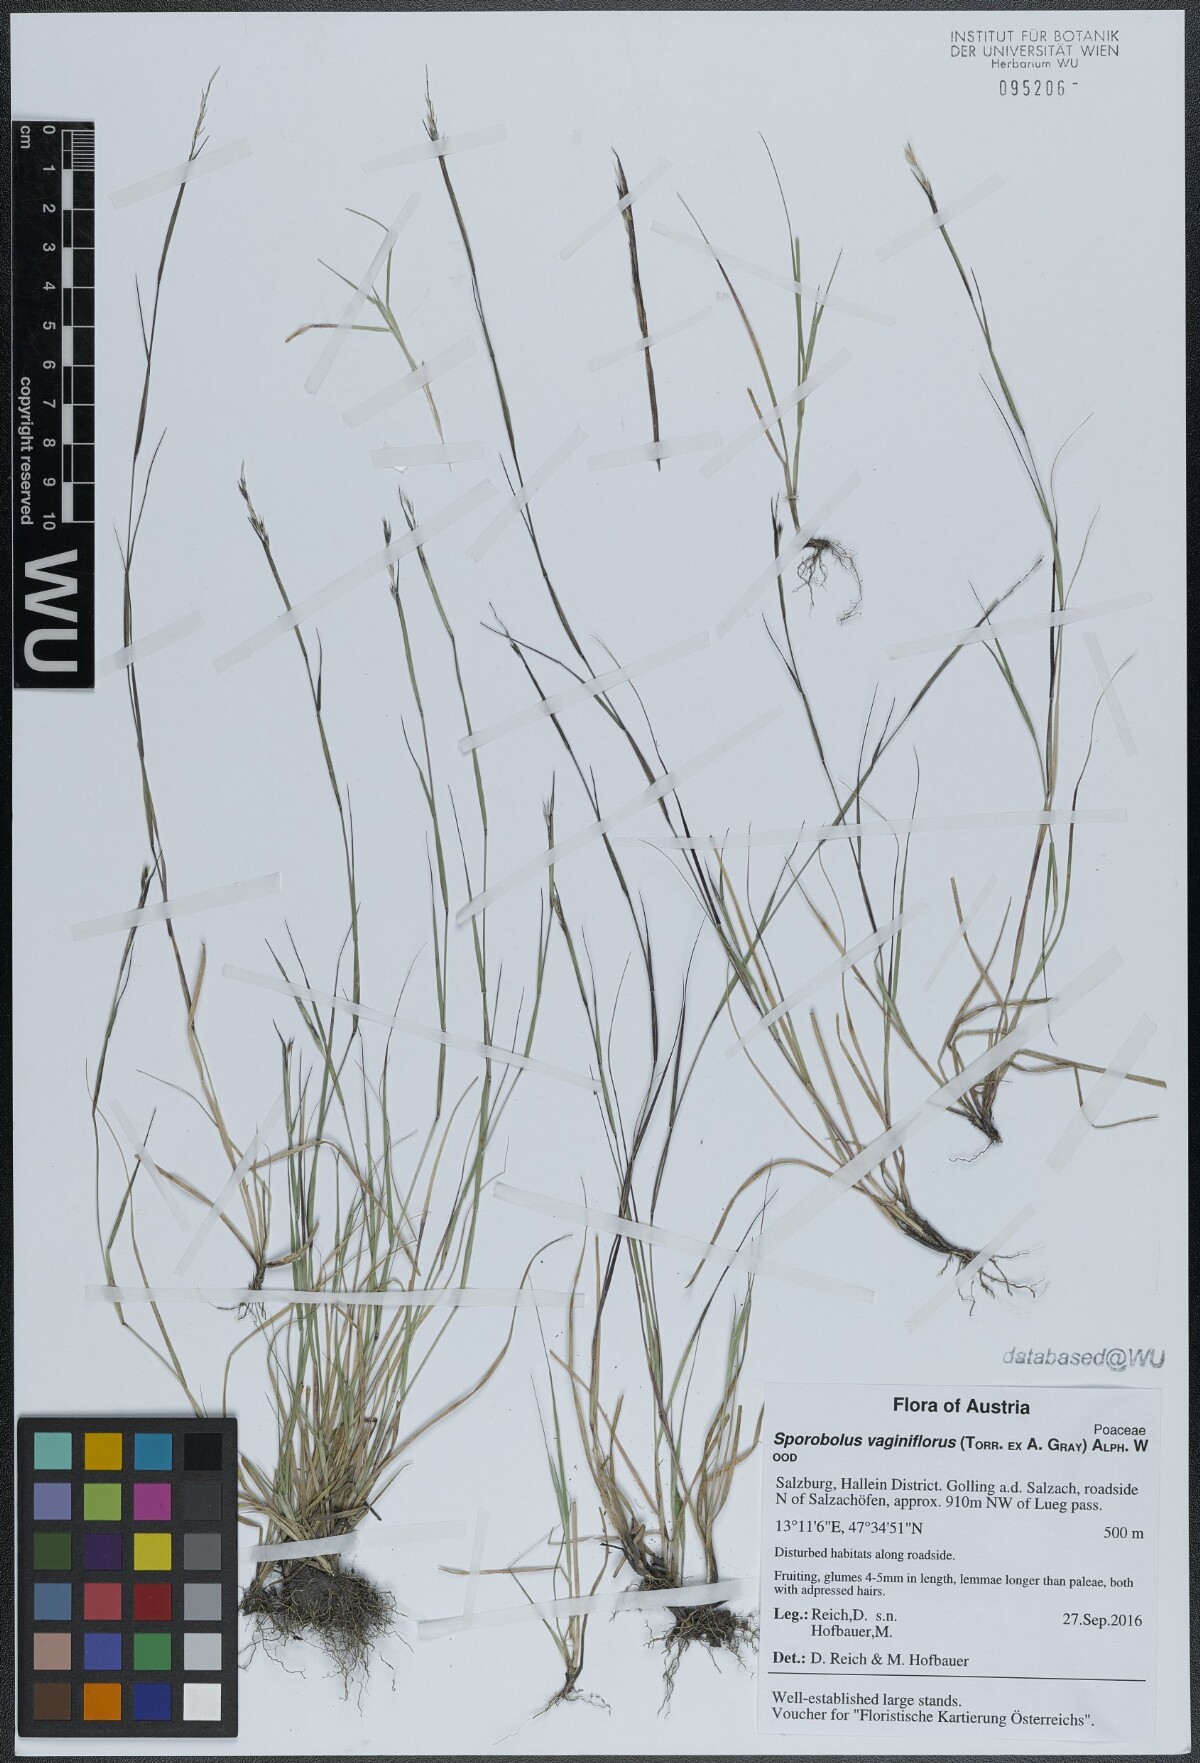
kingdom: Plantae
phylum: Tracheophyta
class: Liliopsida
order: Poales
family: Poaceae
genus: Sporobolus
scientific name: Sporobolus vaginiflorus
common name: Poverty dropseed
